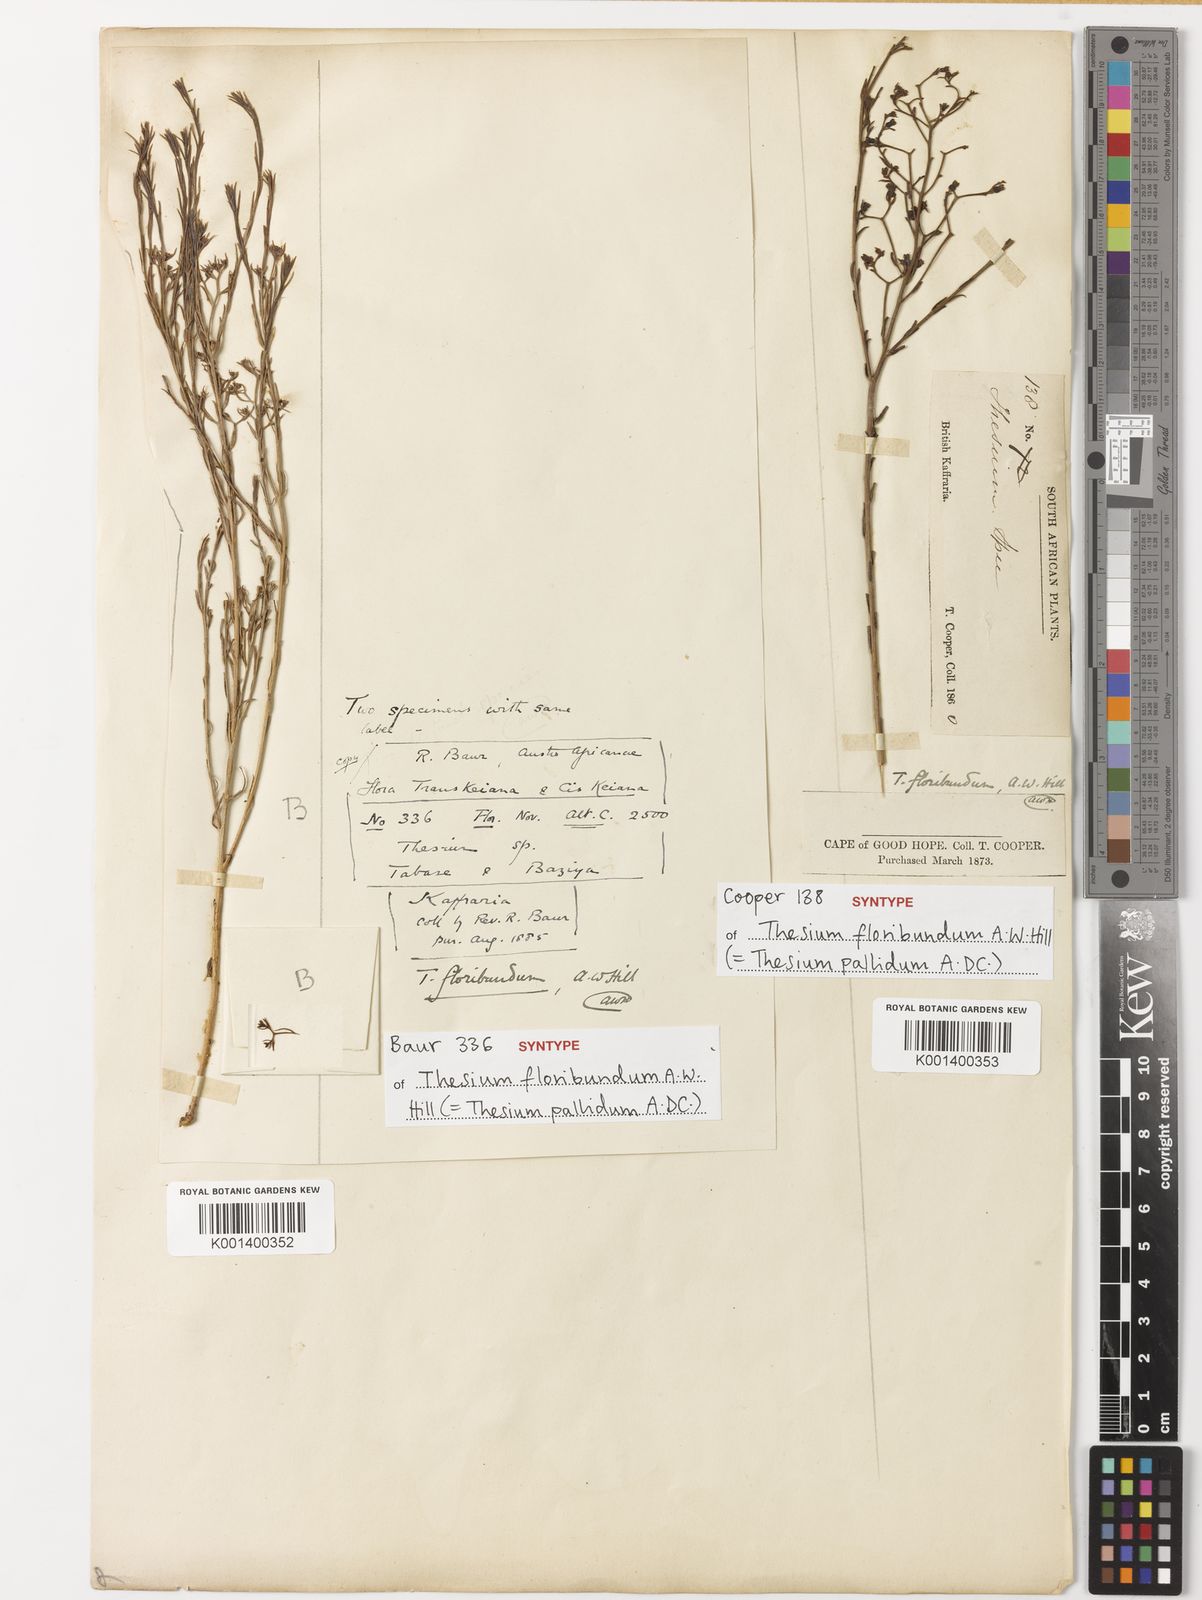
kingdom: Plantae
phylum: Tracheophyta
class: Magnoliopsida
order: Santalales
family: Thesiaceae
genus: Thesium
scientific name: Thesium pallidum
